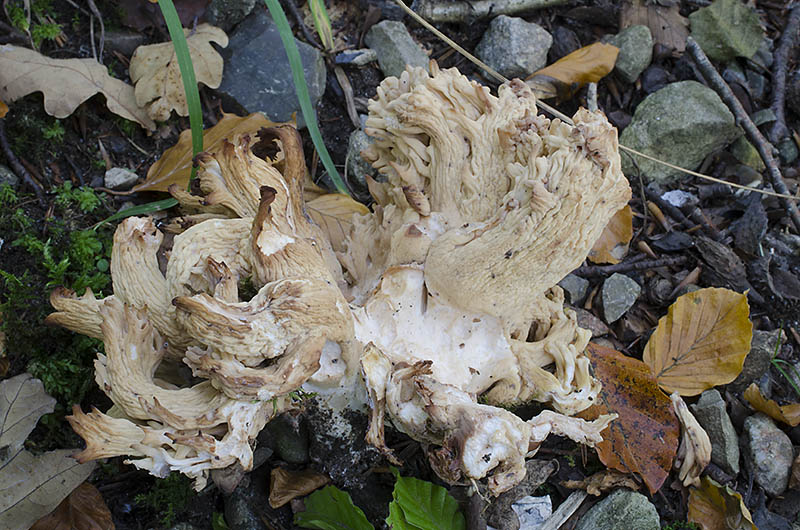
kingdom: Fungi
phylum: Basidiomycota
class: Agaricomycetes
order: Gomphales
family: Gomphaceae
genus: Ramaria
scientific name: Ramaria botrytis
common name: drue-koralsvamp
